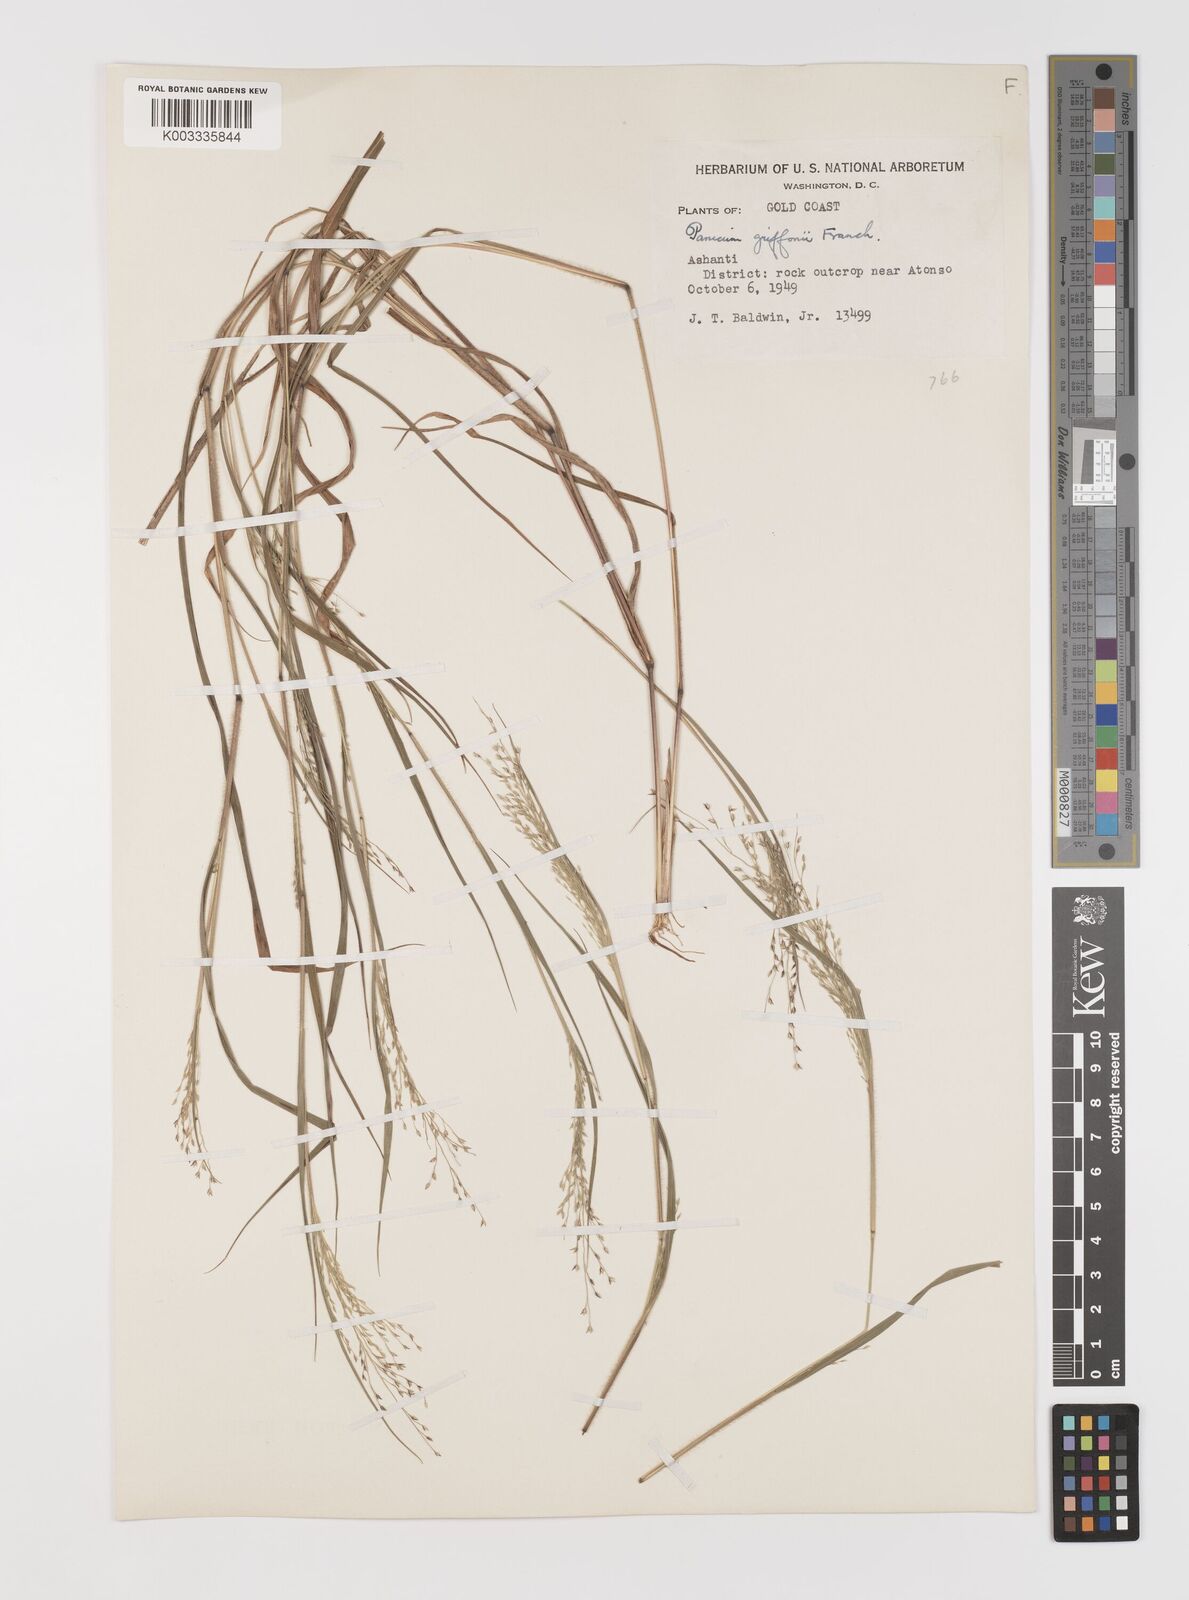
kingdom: Plantae
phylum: Tracheophyta
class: Liliopsida
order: Poales
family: Poaceae
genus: Panicum
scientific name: Panicum griffonii
